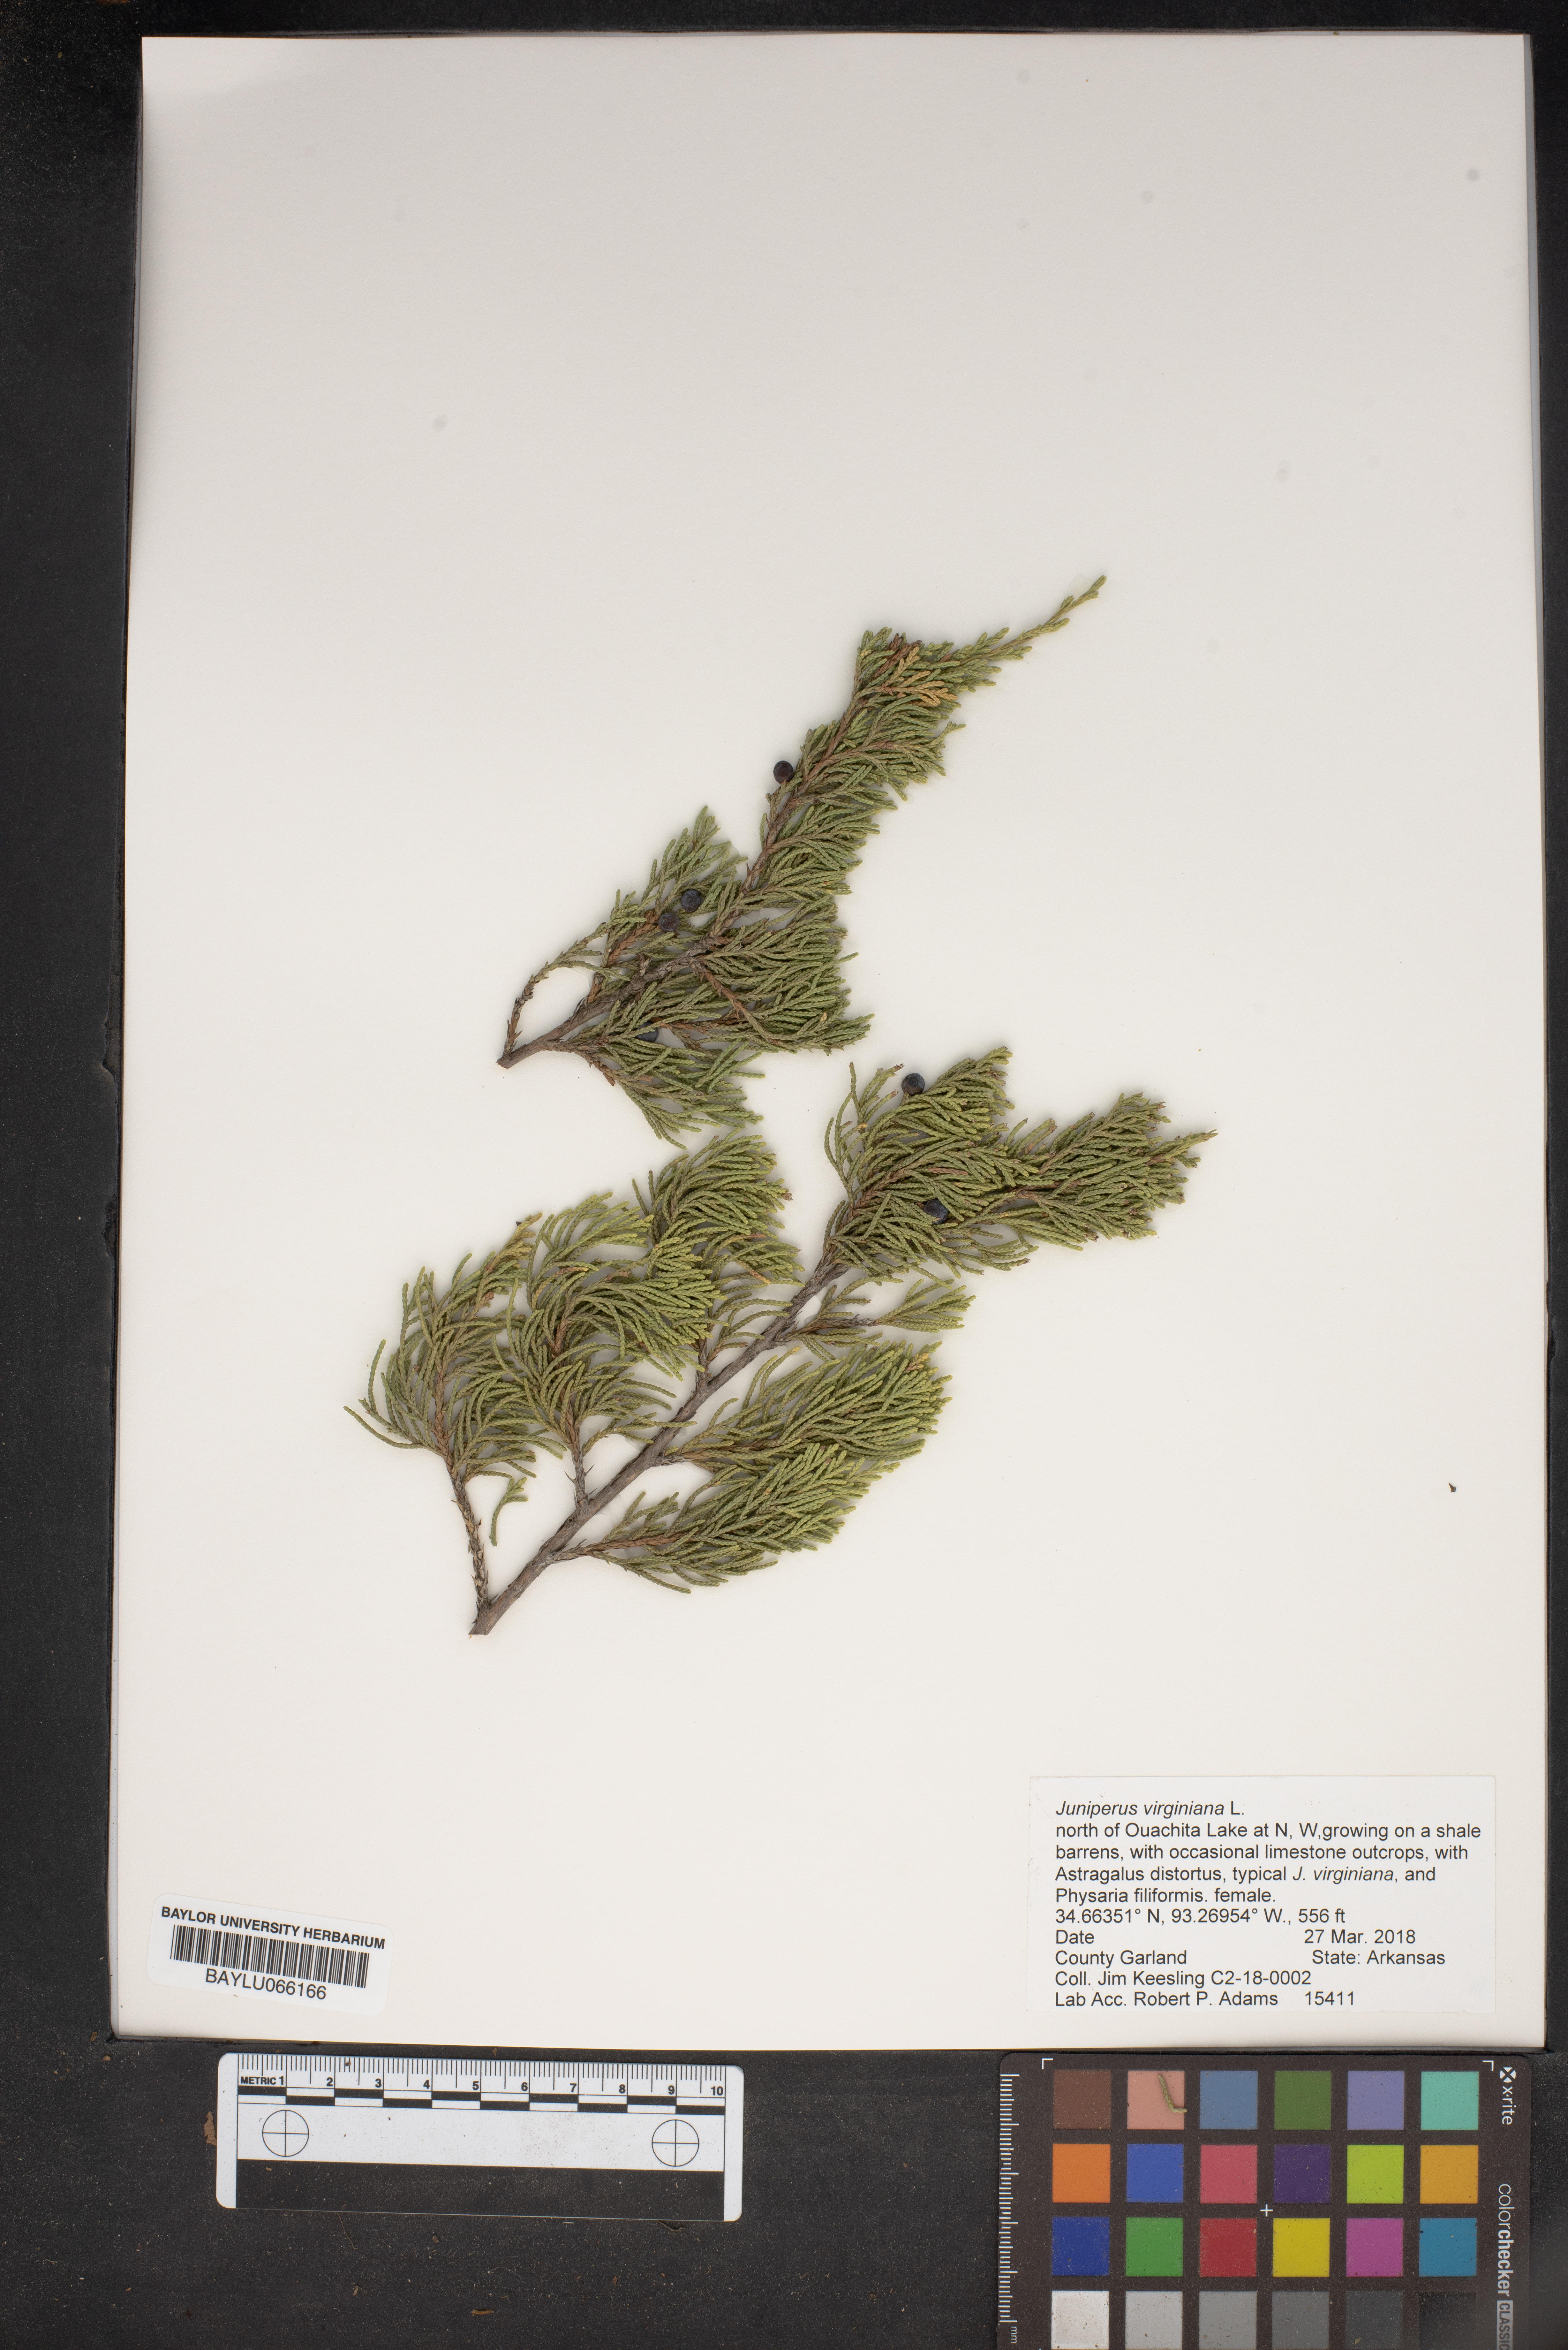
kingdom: Plantae
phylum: Tracheophyta
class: Pinopsida
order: Pinales
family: Cupressaceae
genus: Juniperus
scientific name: Juniperus virginiana
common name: Red juniper
